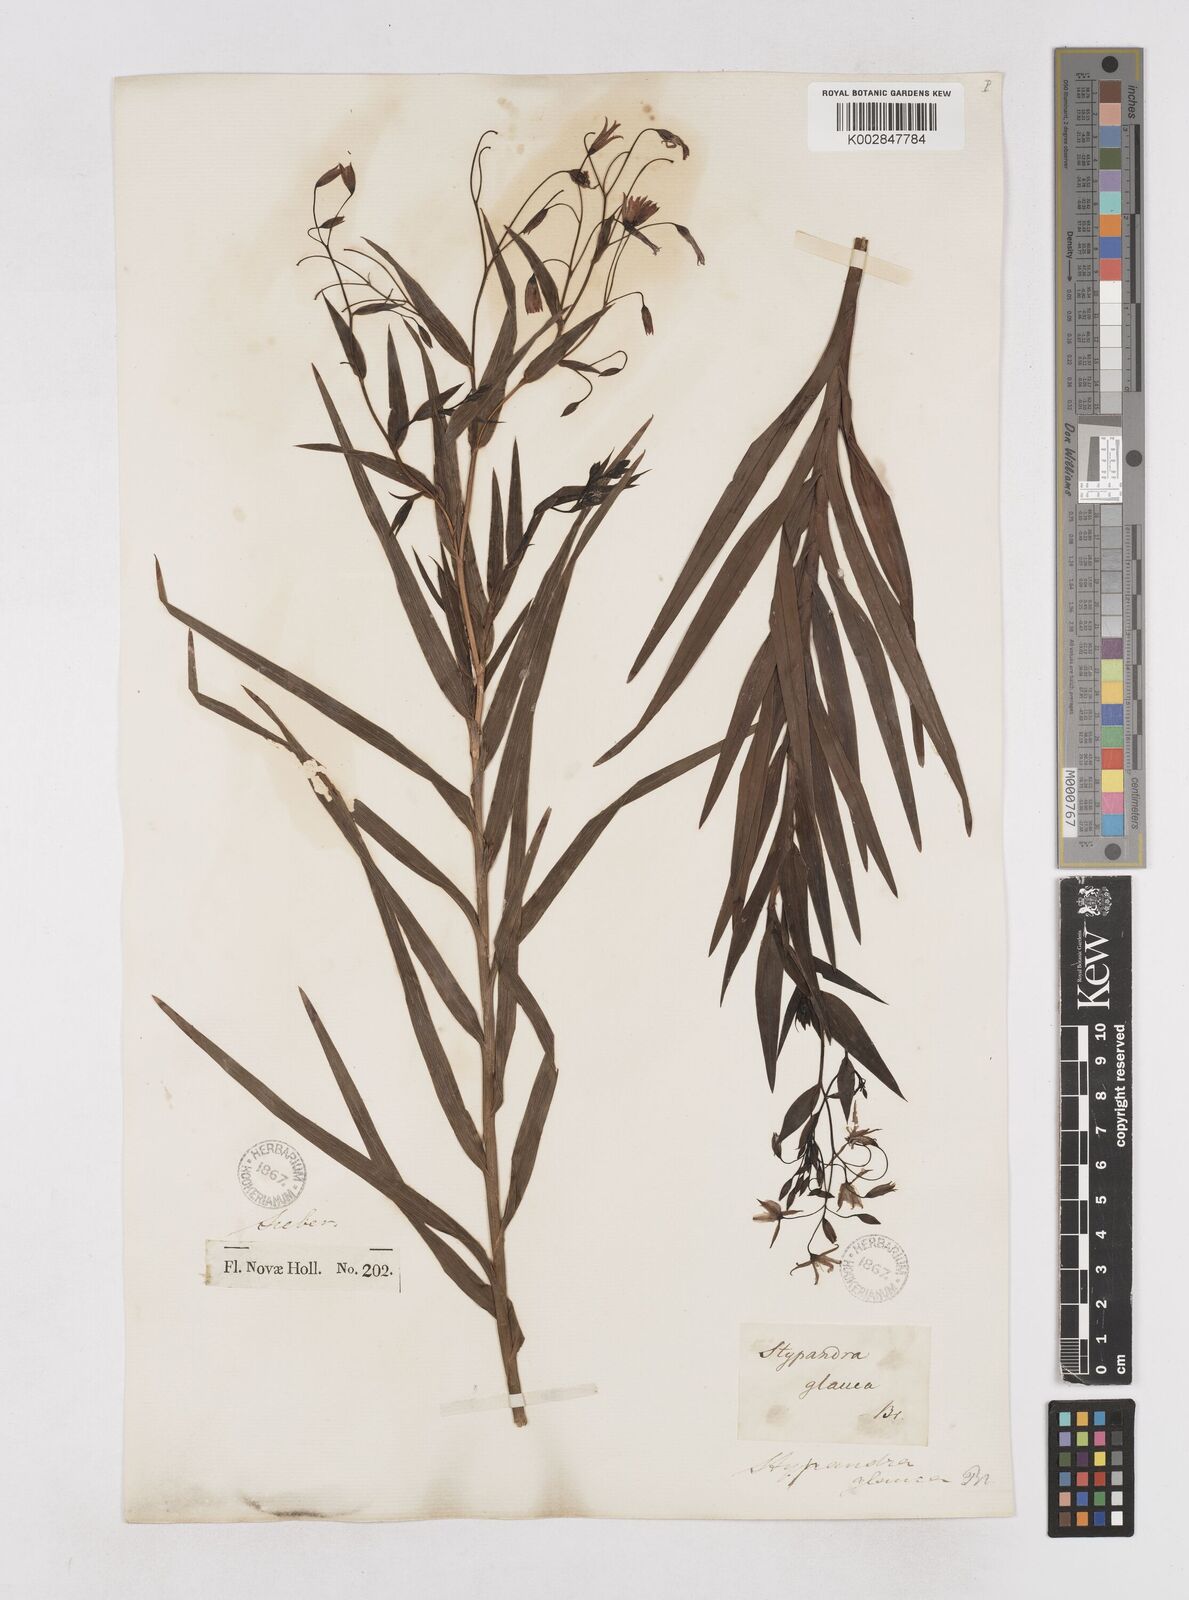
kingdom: Plantae
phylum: Tracheophyta
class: Liliopsida
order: Asparagales
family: Asphodelaceae
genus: Stypandra
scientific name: Stypandra glauca
